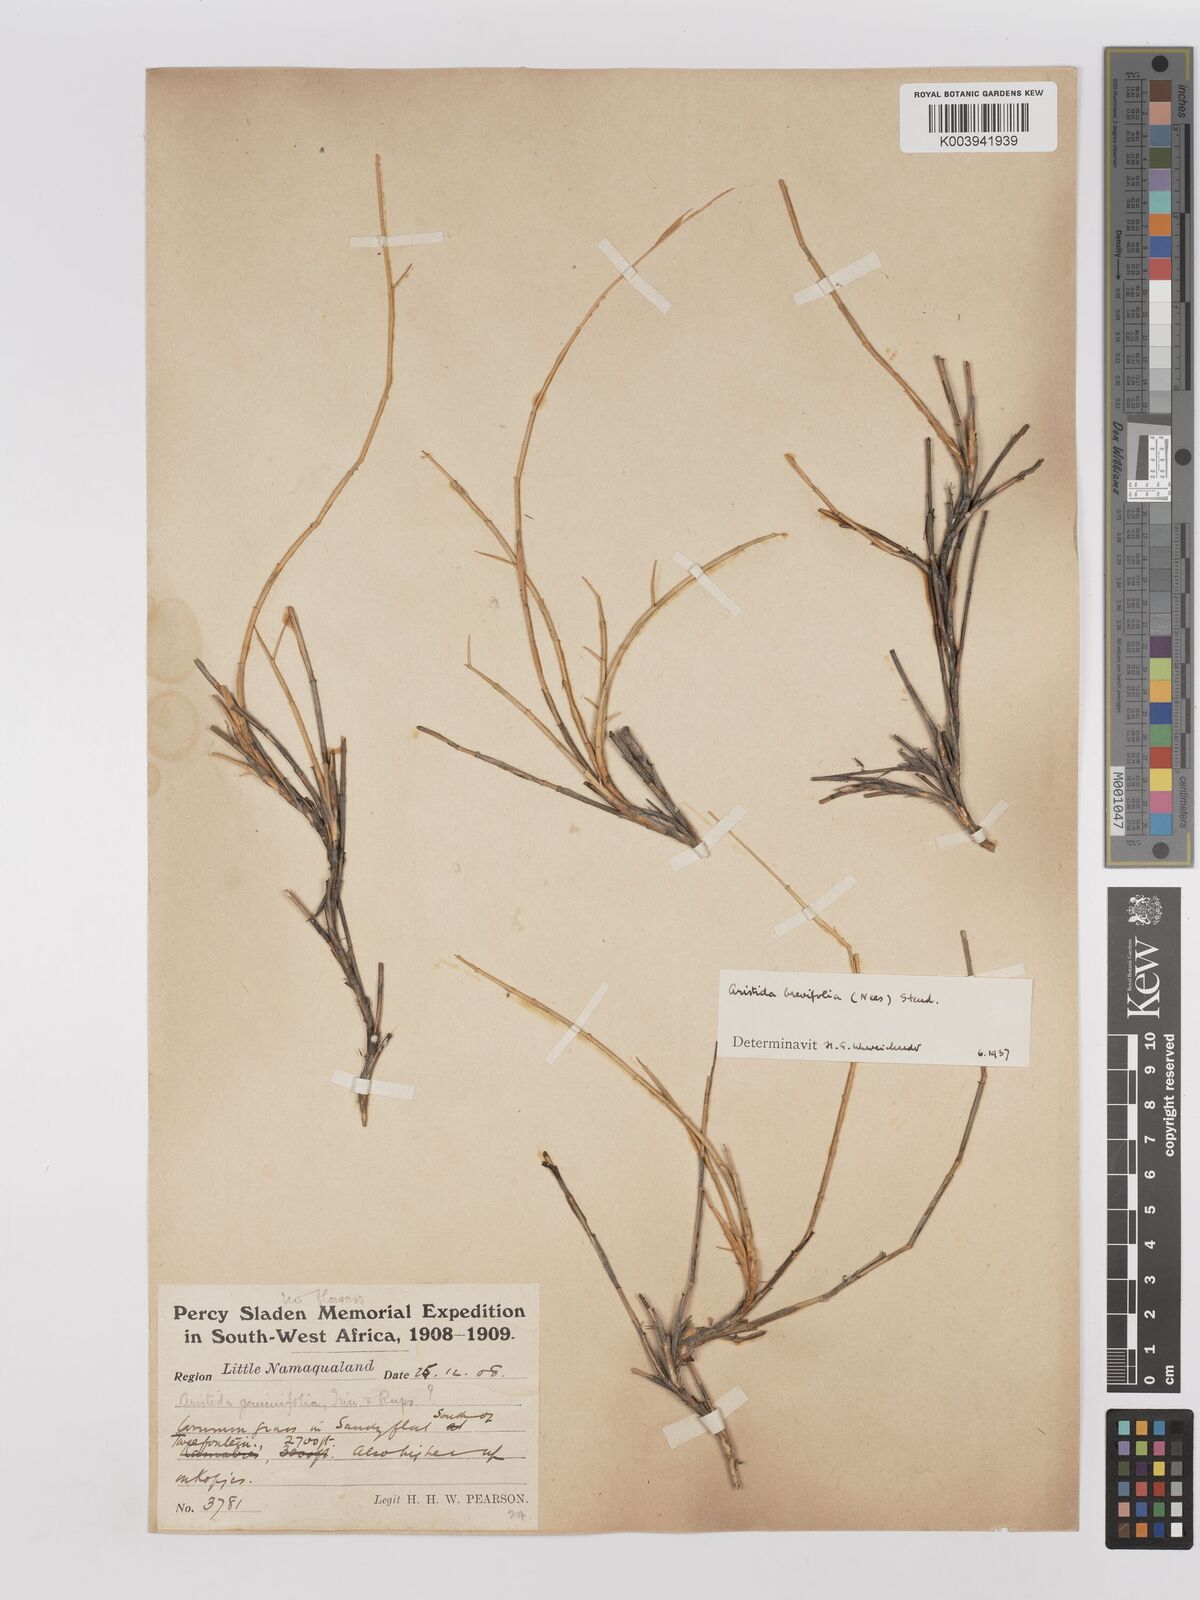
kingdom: Plantae
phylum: Tracheophyta
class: Liliopsida
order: Poales
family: Poaceae
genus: Stipagrostis
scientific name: Stipagrostis brevifolia
